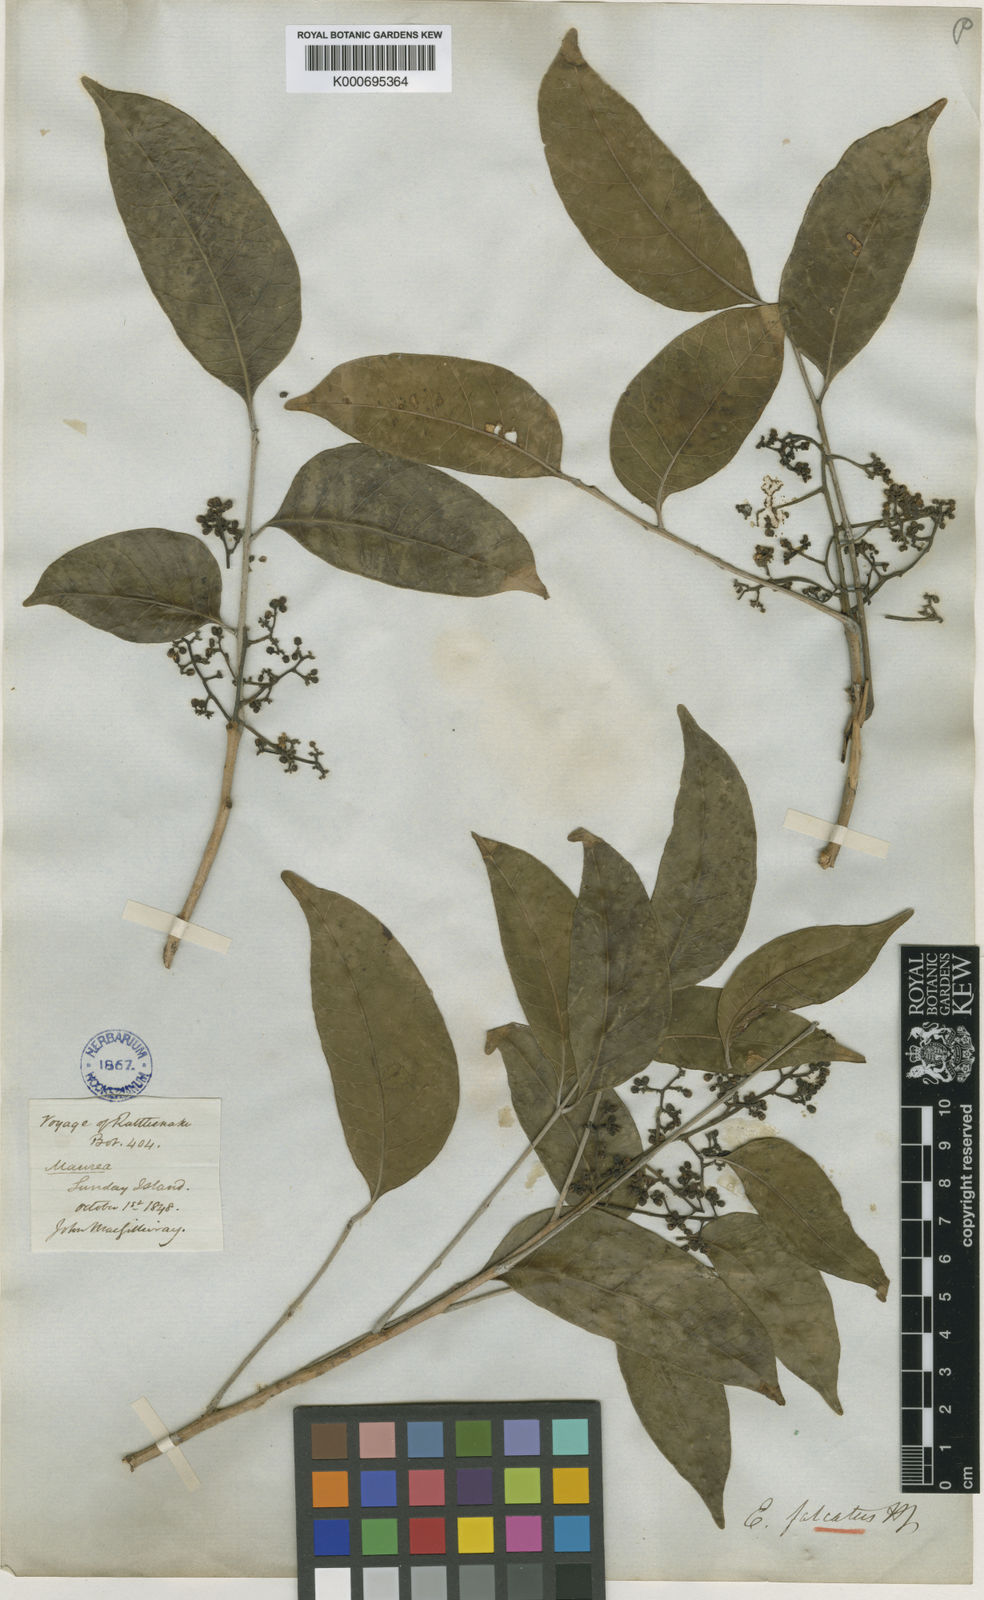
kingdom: Plantae
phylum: Tracheophyta
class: Magnoliopsida
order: Sapindales
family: Anacardiaceae
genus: Euroschinus
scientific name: Euroschinus falcatus
